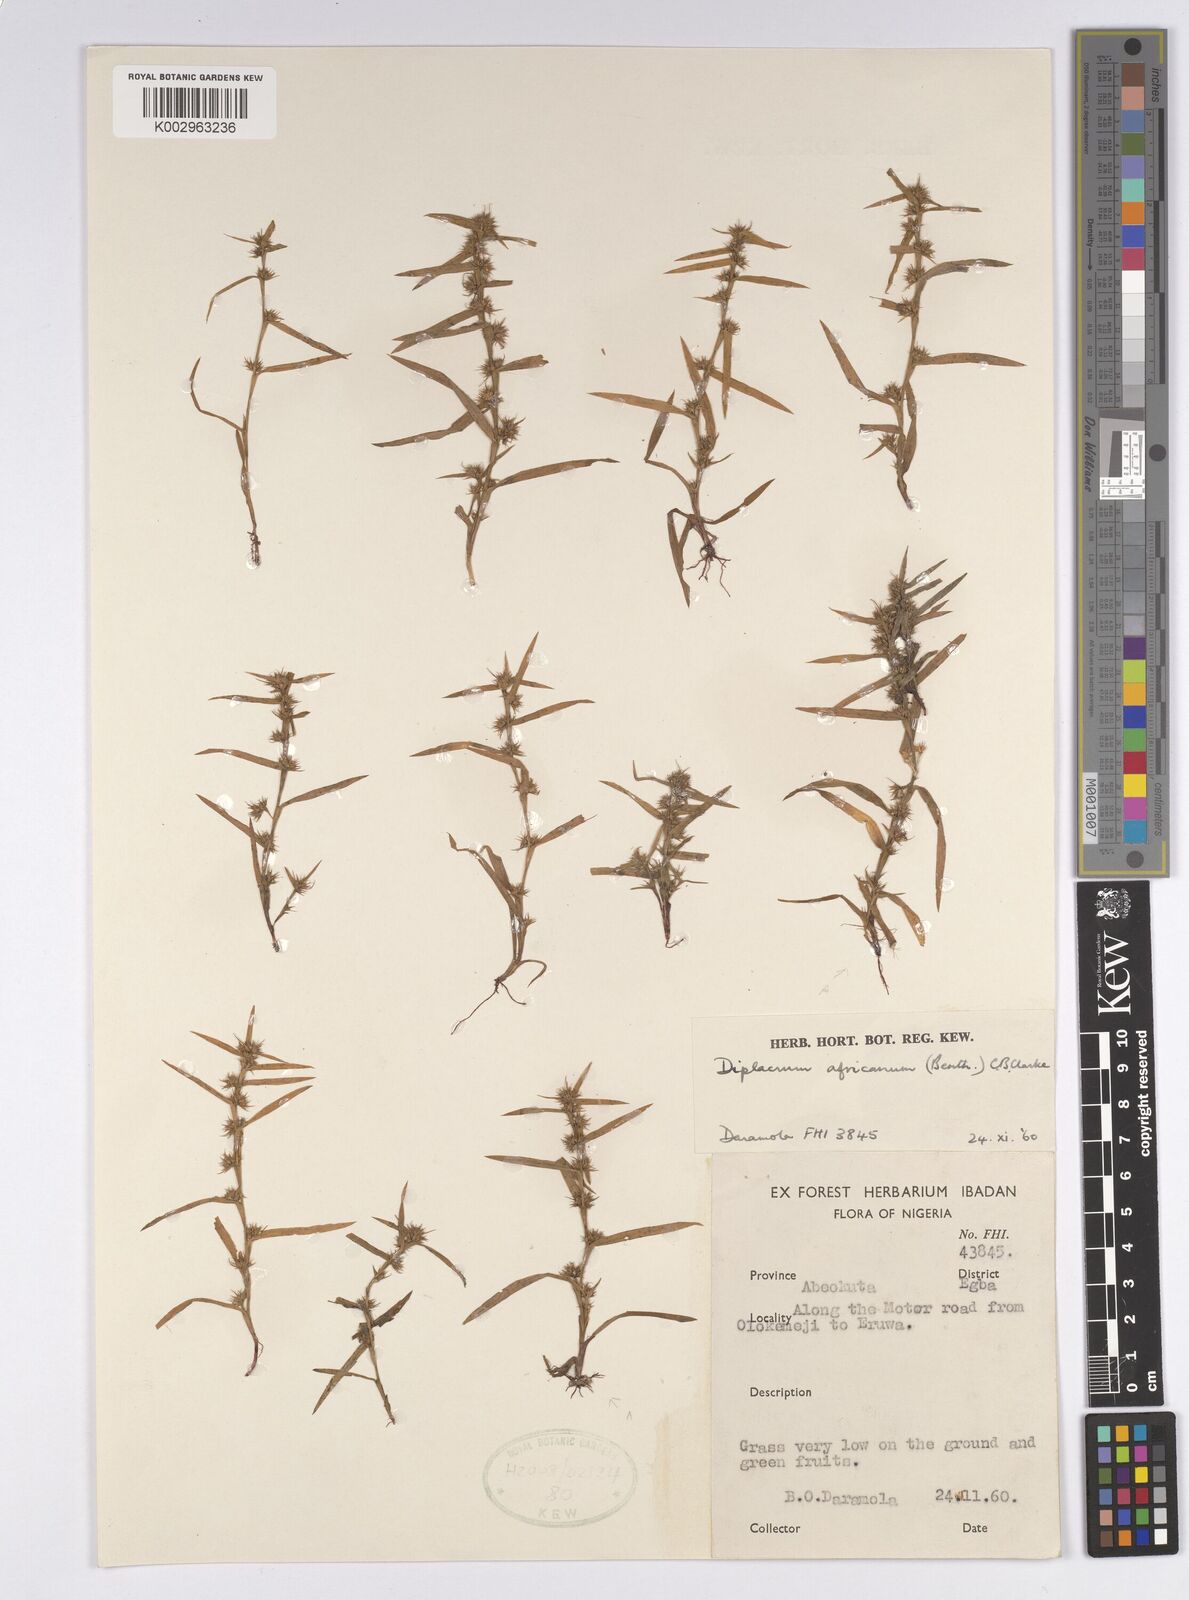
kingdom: Plantae
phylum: Tracheophyta
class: Liliopsida
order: Poales
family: Cyperaceae
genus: Diplacrum
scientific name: Diplacrum africanum
